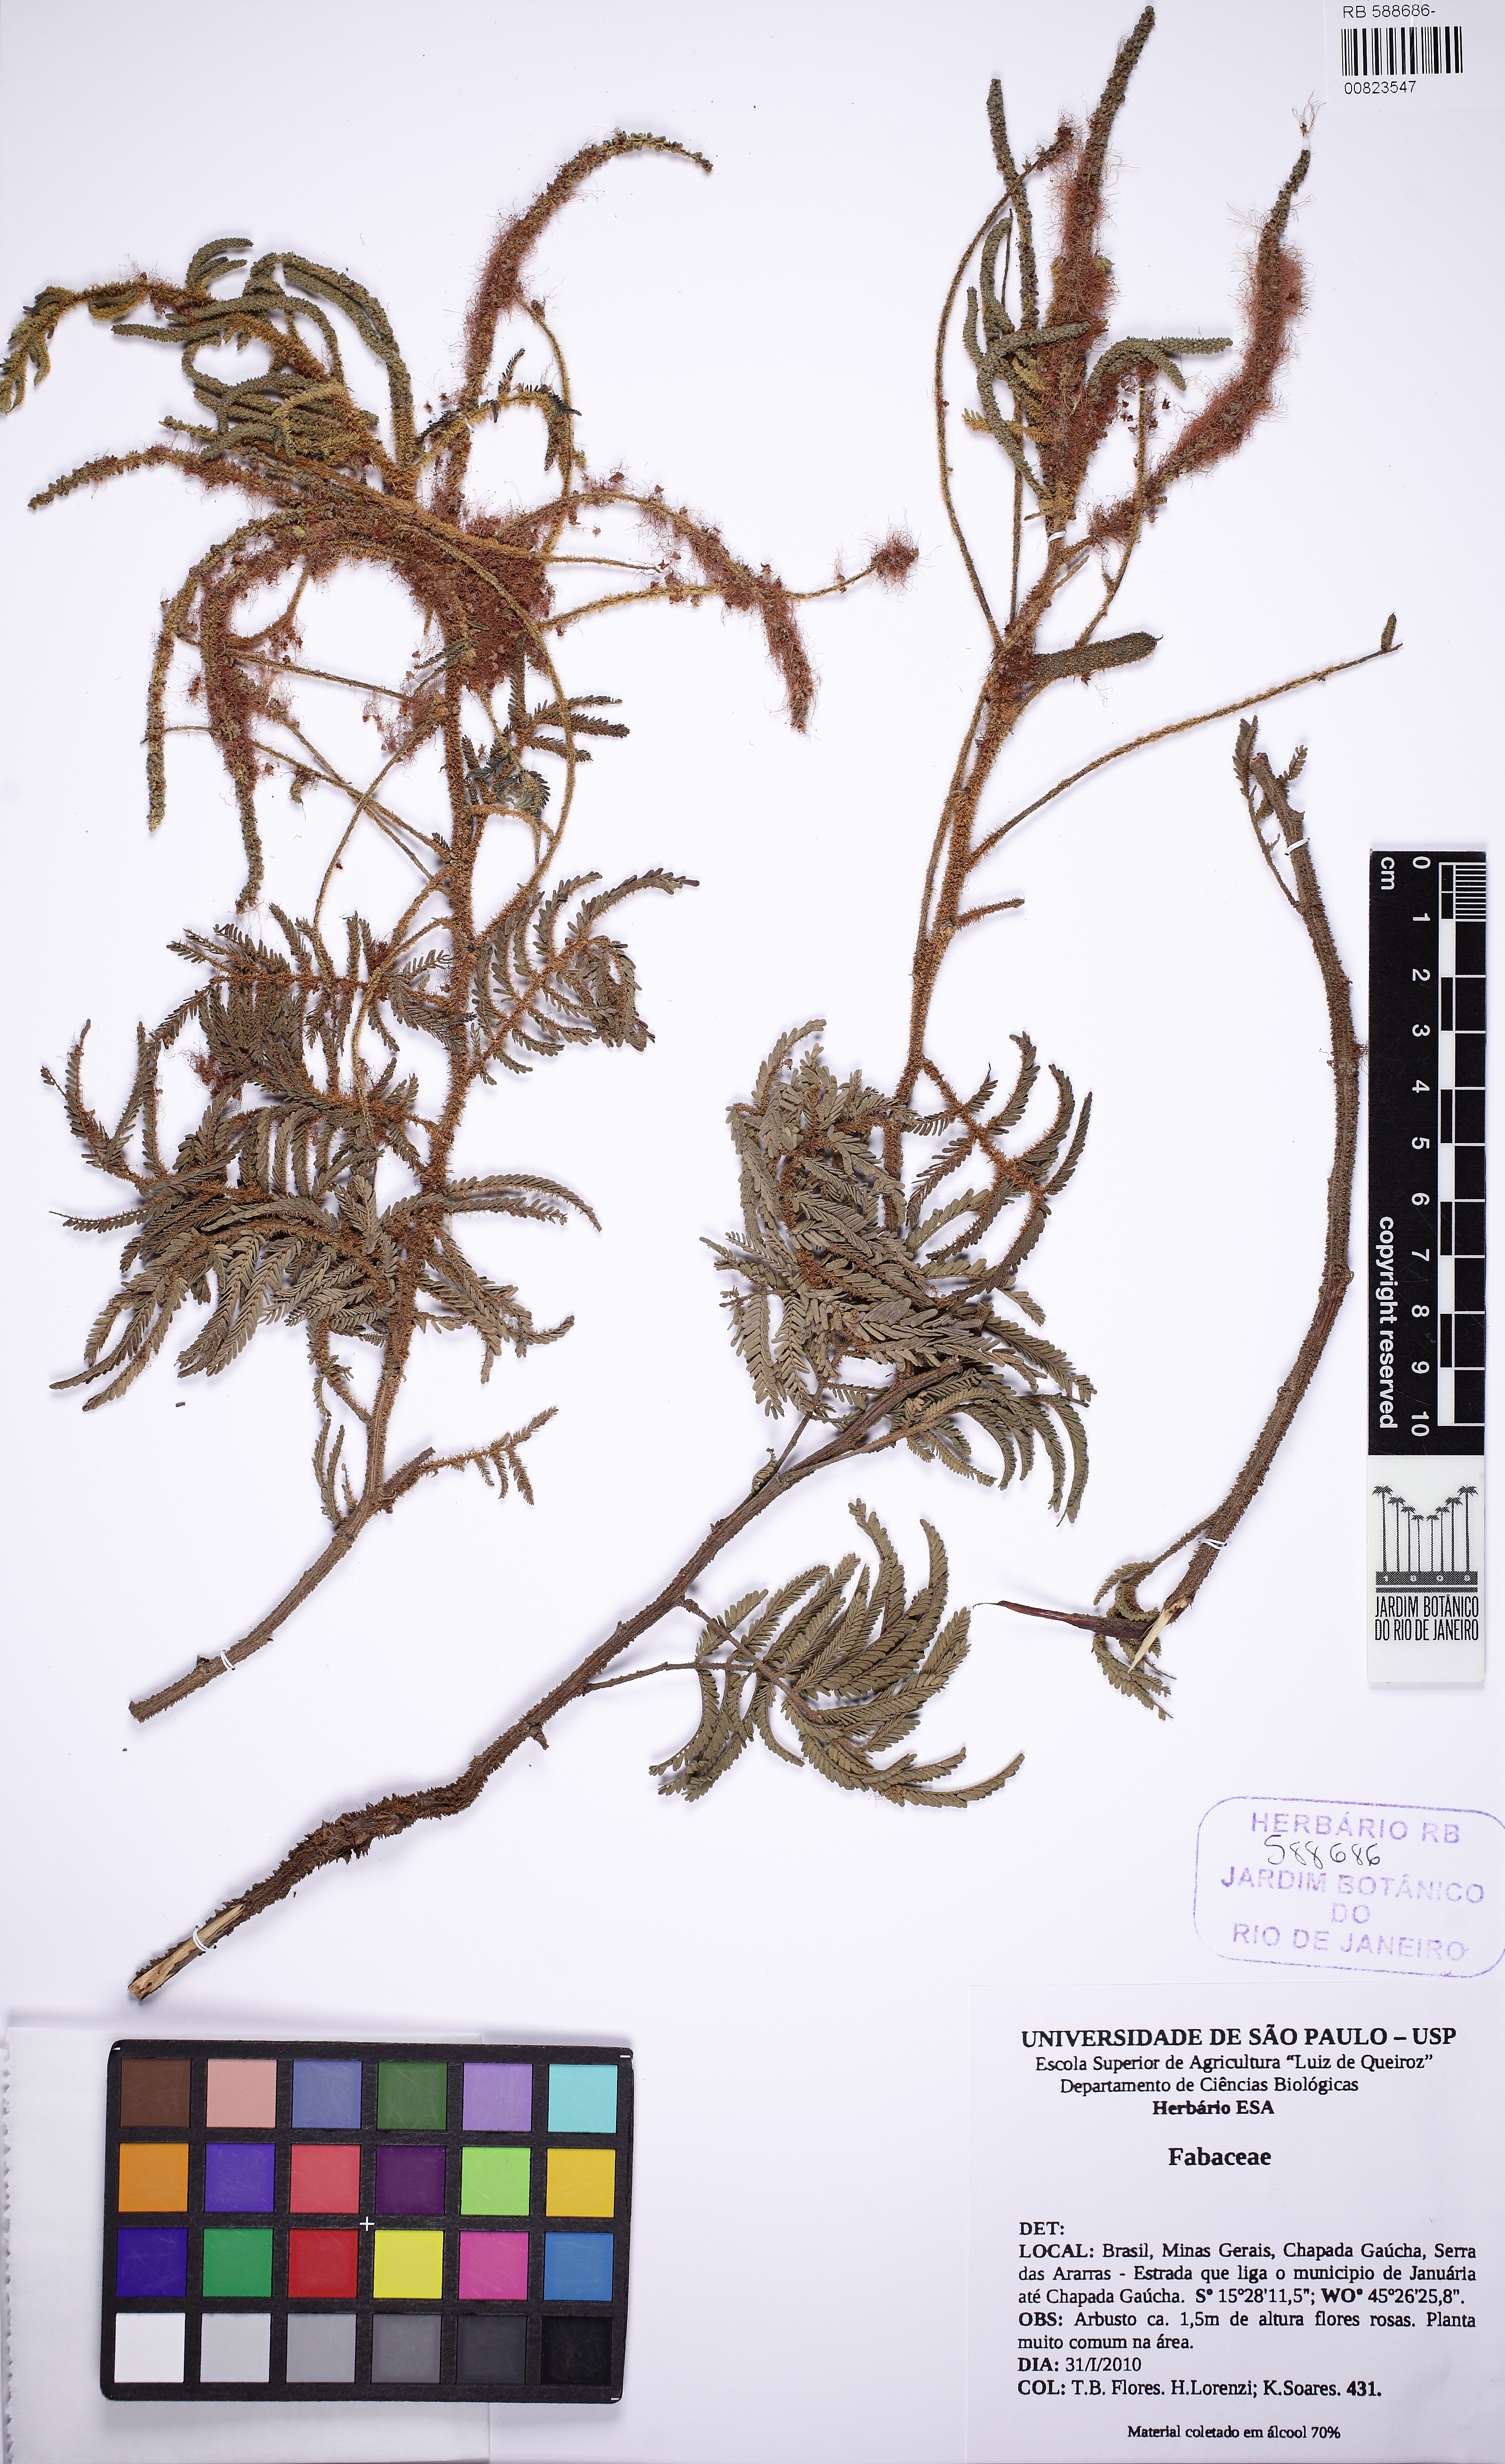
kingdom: Plantae
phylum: Tracheophyta
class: Magnoliopsida
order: Fabales
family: Fabaceae
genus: Mimosa
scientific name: Mimosa coruscocaesia
